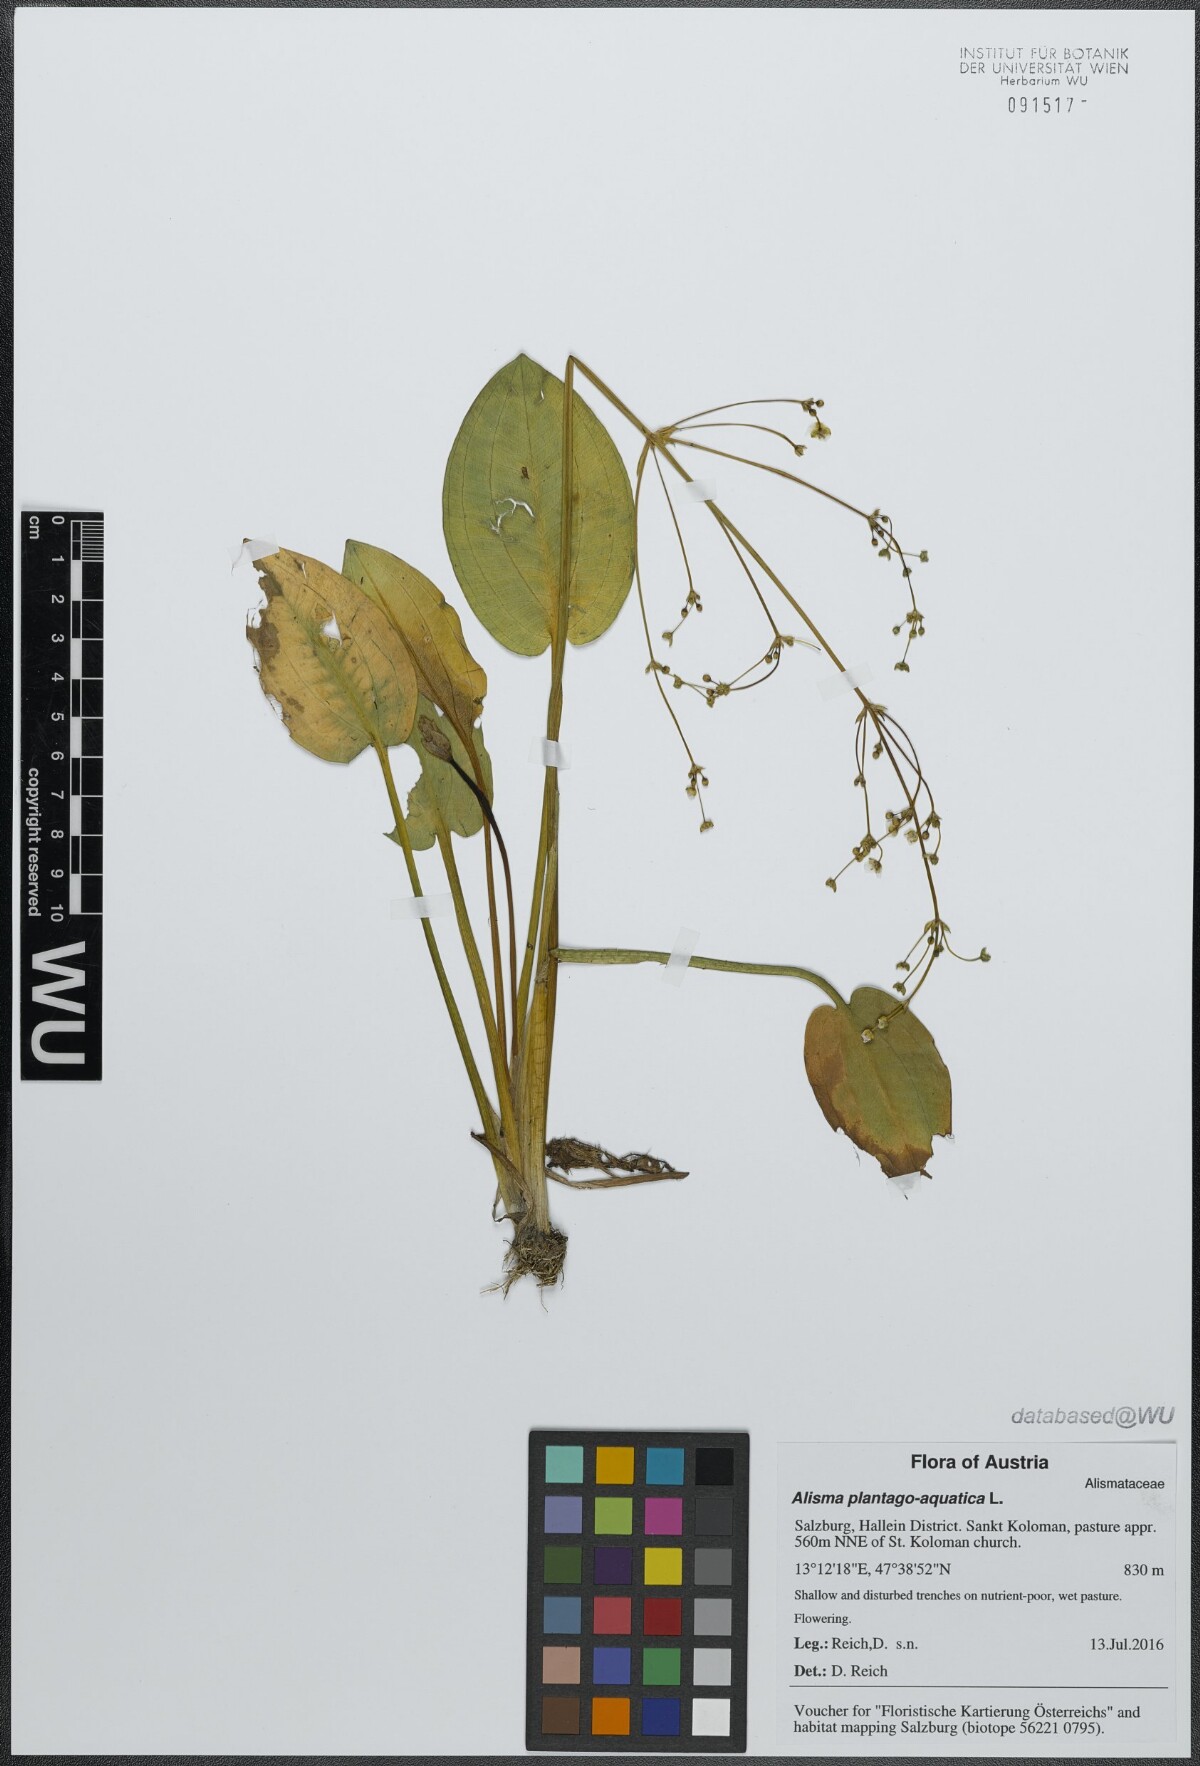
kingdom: Plantae
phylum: Tracheophyta
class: Liliopsida
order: Alismatales
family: Alismataceae
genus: Alisma
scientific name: Alisma plantago-aquatica
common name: Water-plantain
